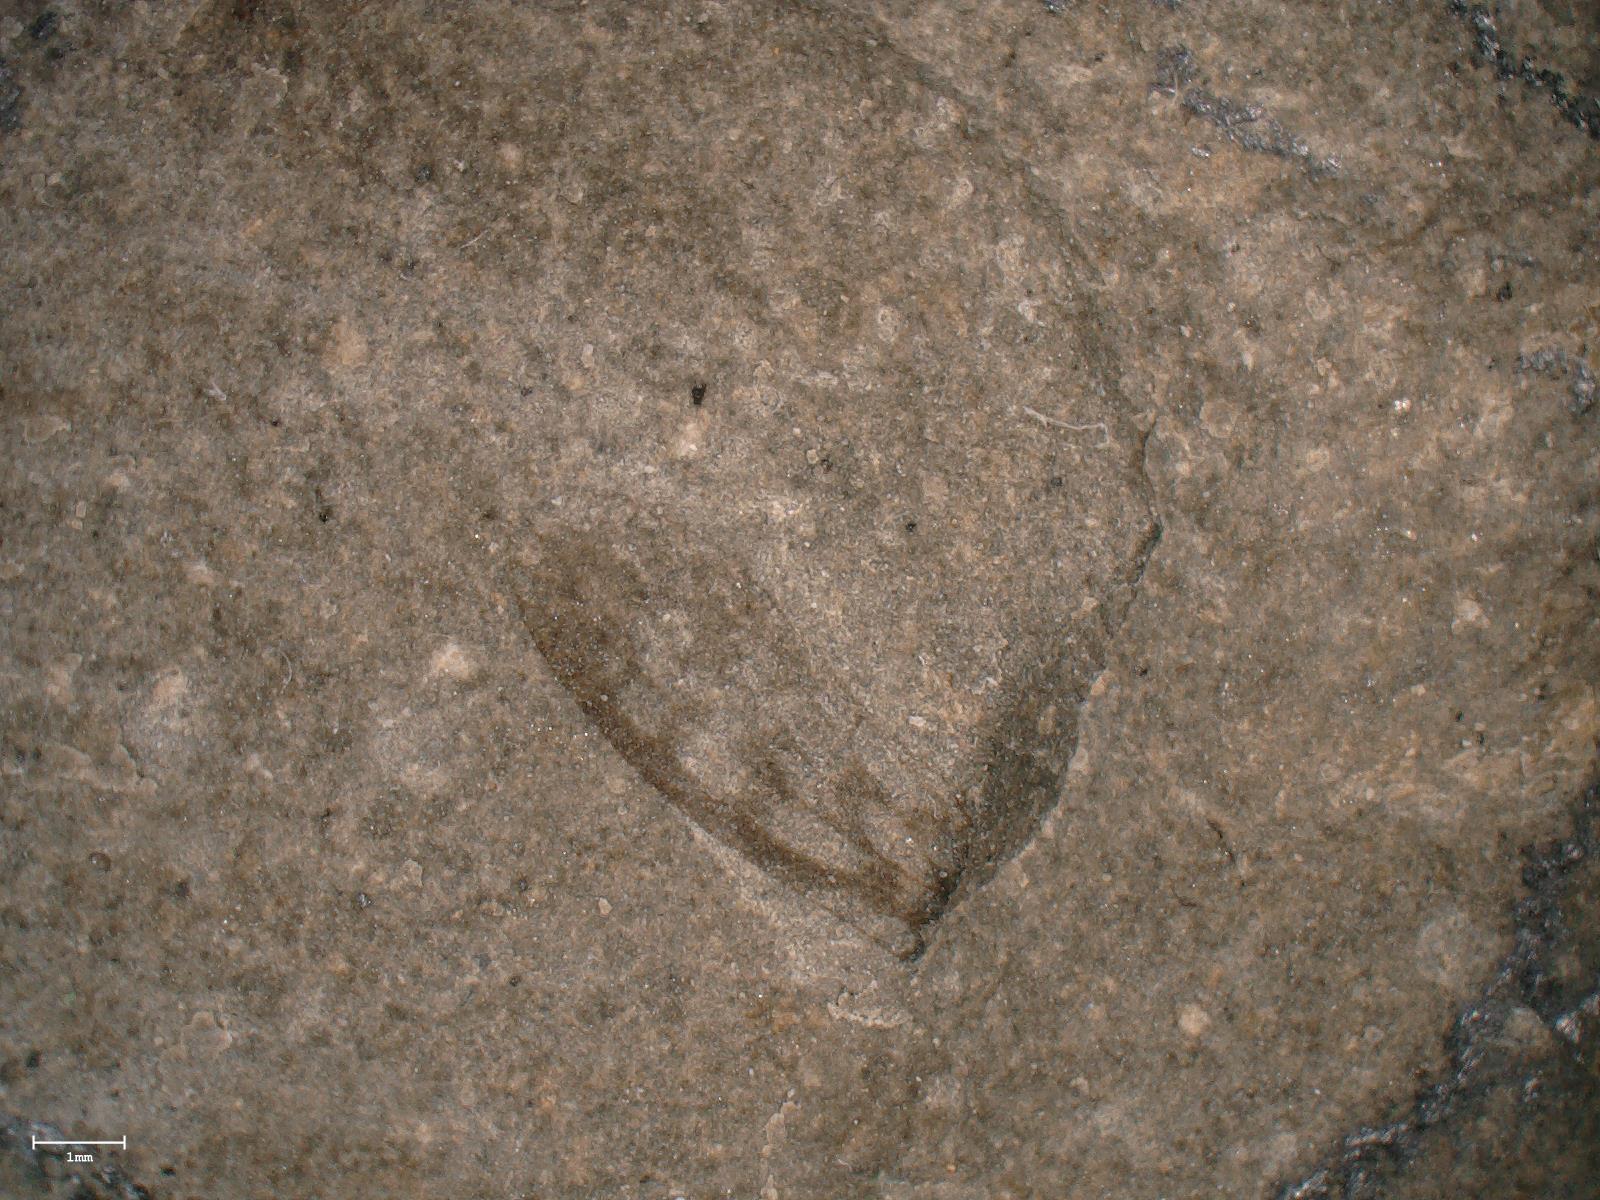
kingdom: Animalia
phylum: Arthropoda
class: Insecta
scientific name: Insecta
